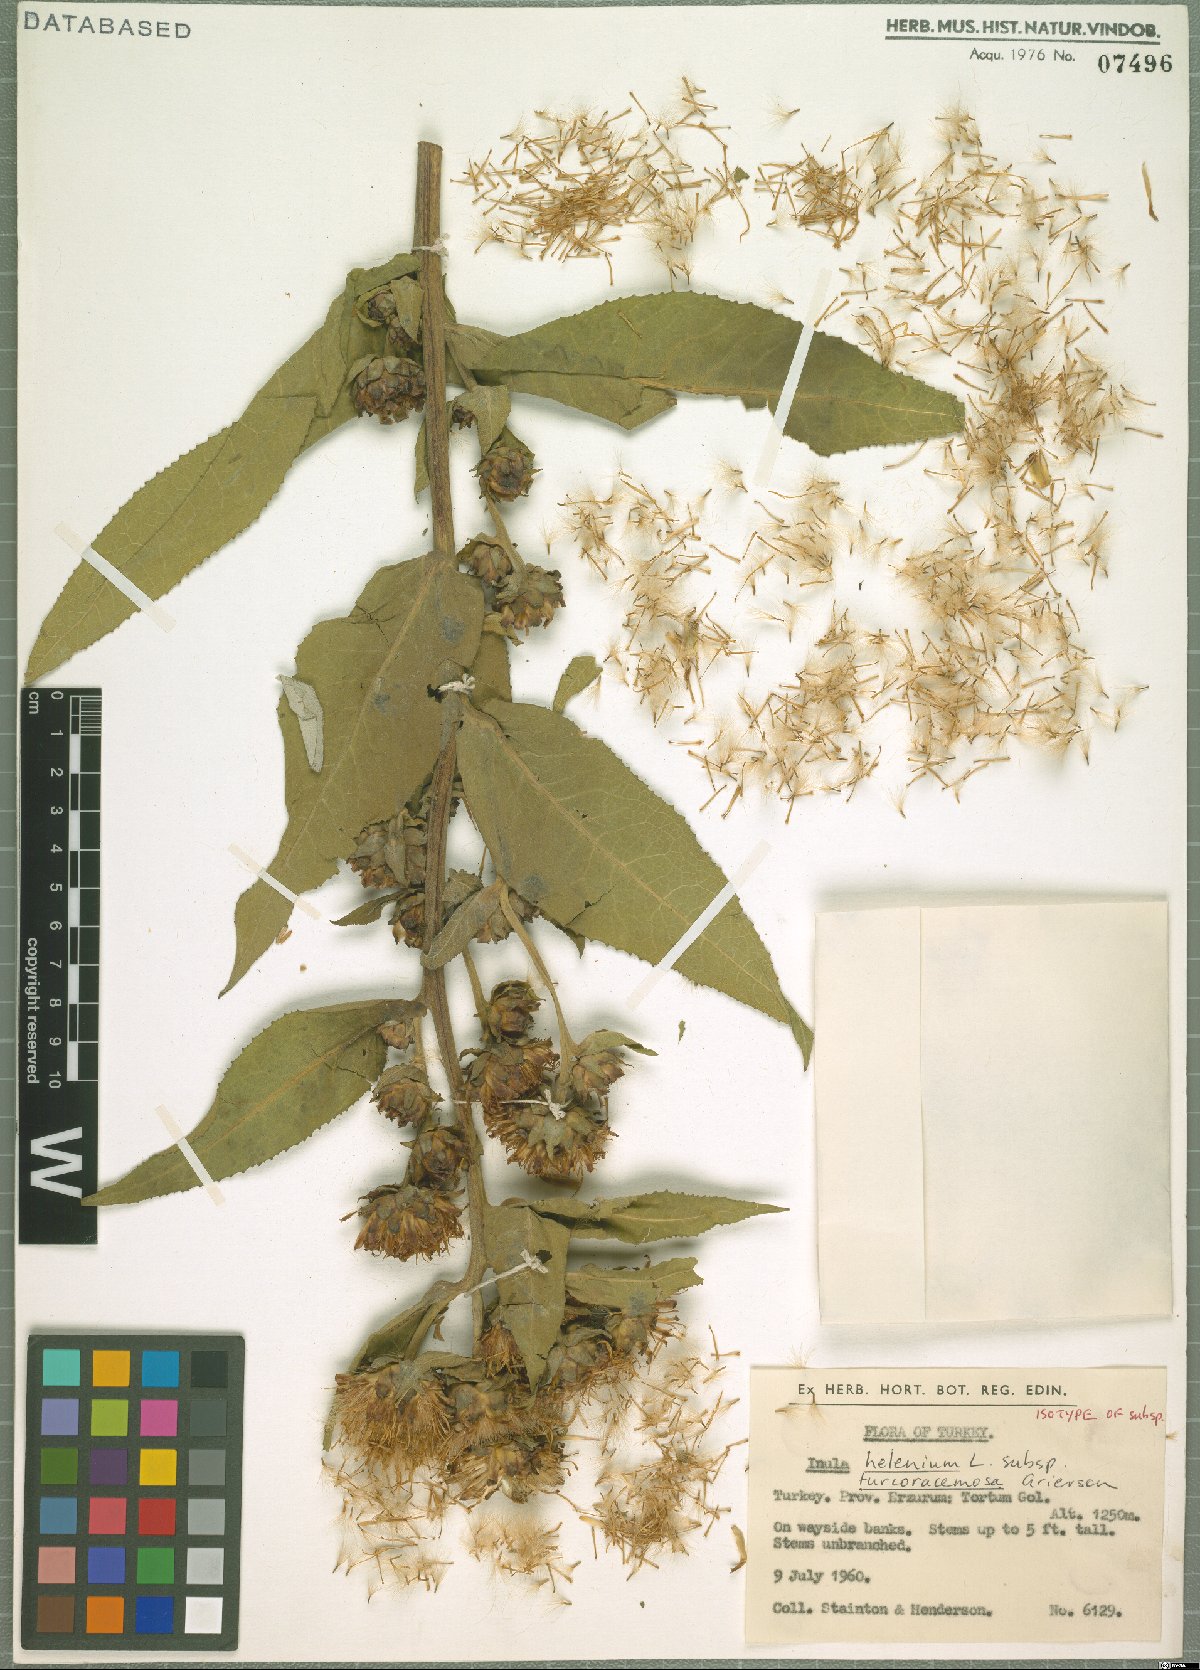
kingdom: Plantae
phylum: Tracheophyta
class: Magnoliopsida
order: Asterales
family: Asteraceae
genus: Inula
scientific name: Inula helenium
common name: Elecampane
